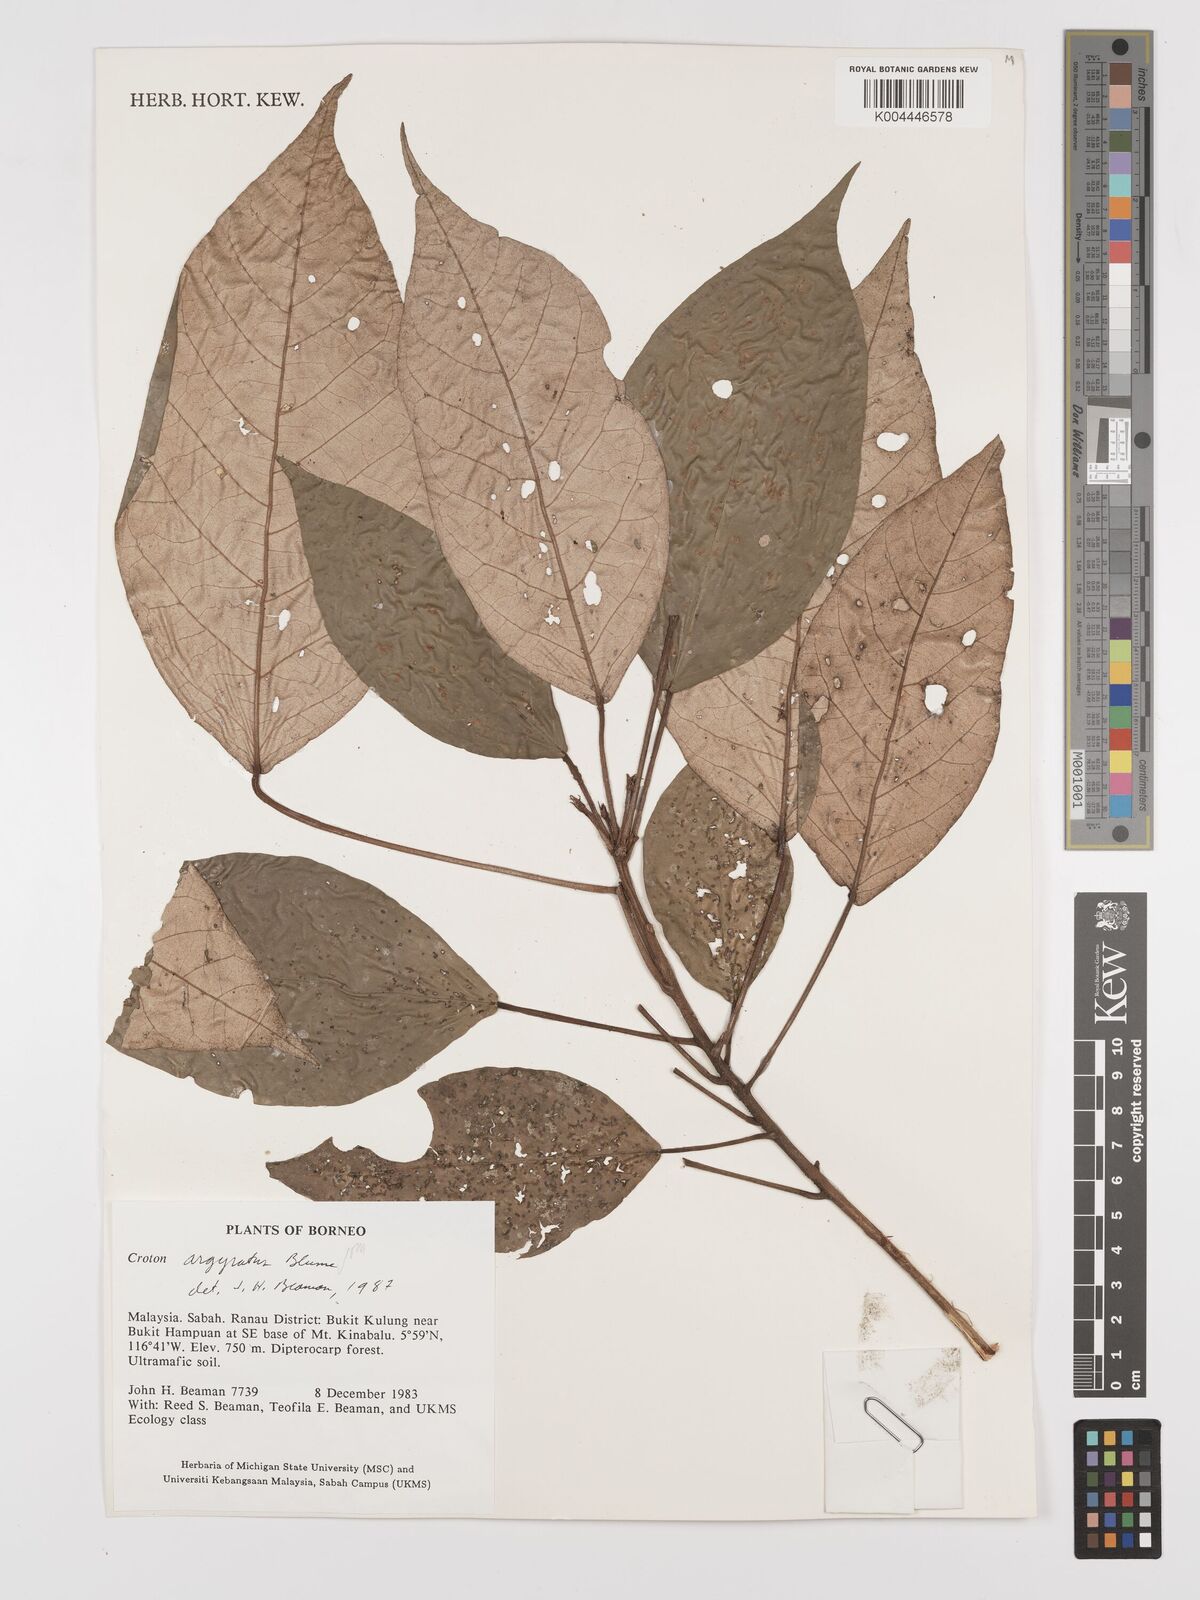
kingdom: Plantae
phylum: Tracheophyta
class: Magnoliopsida
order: Malpighiales
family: Euphorbiaceae
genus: Croton
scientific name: Croton argyratus
